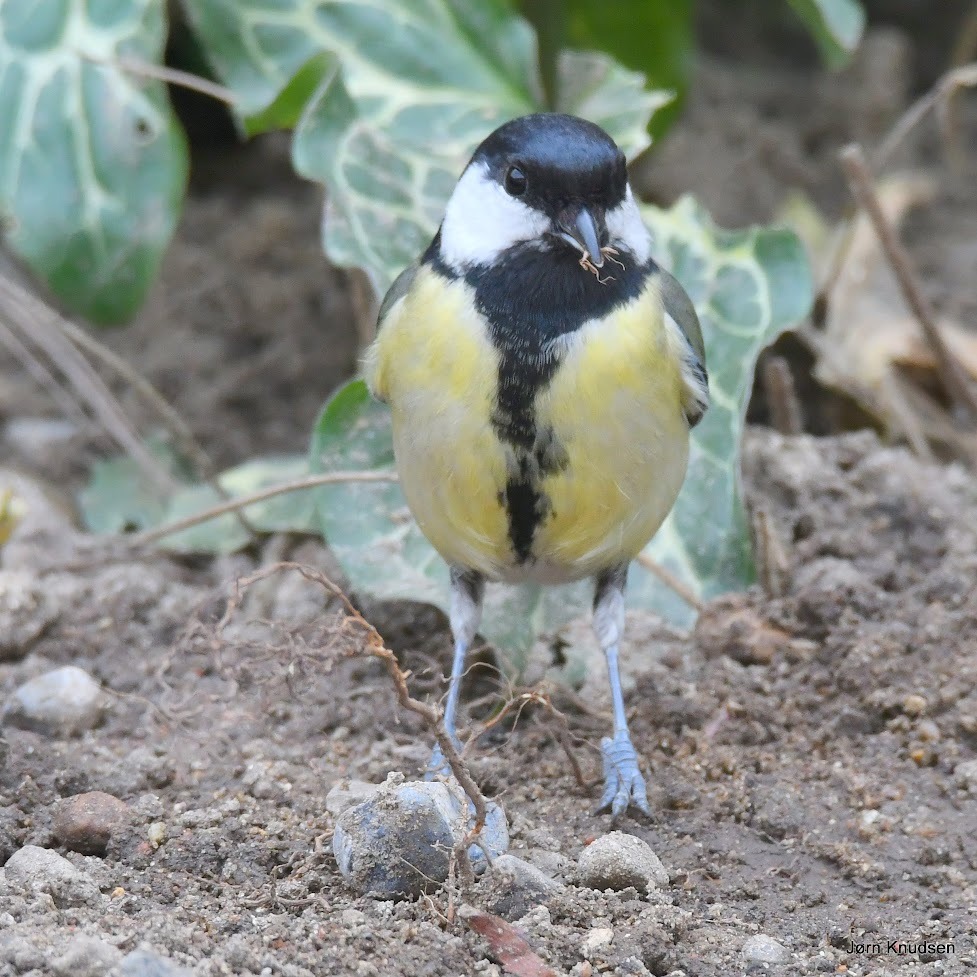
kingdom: Animalia
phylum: Chordata
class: Aves
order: Passeriformes
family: Paridae
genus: Parus
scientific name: Parus major
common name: Musvit
